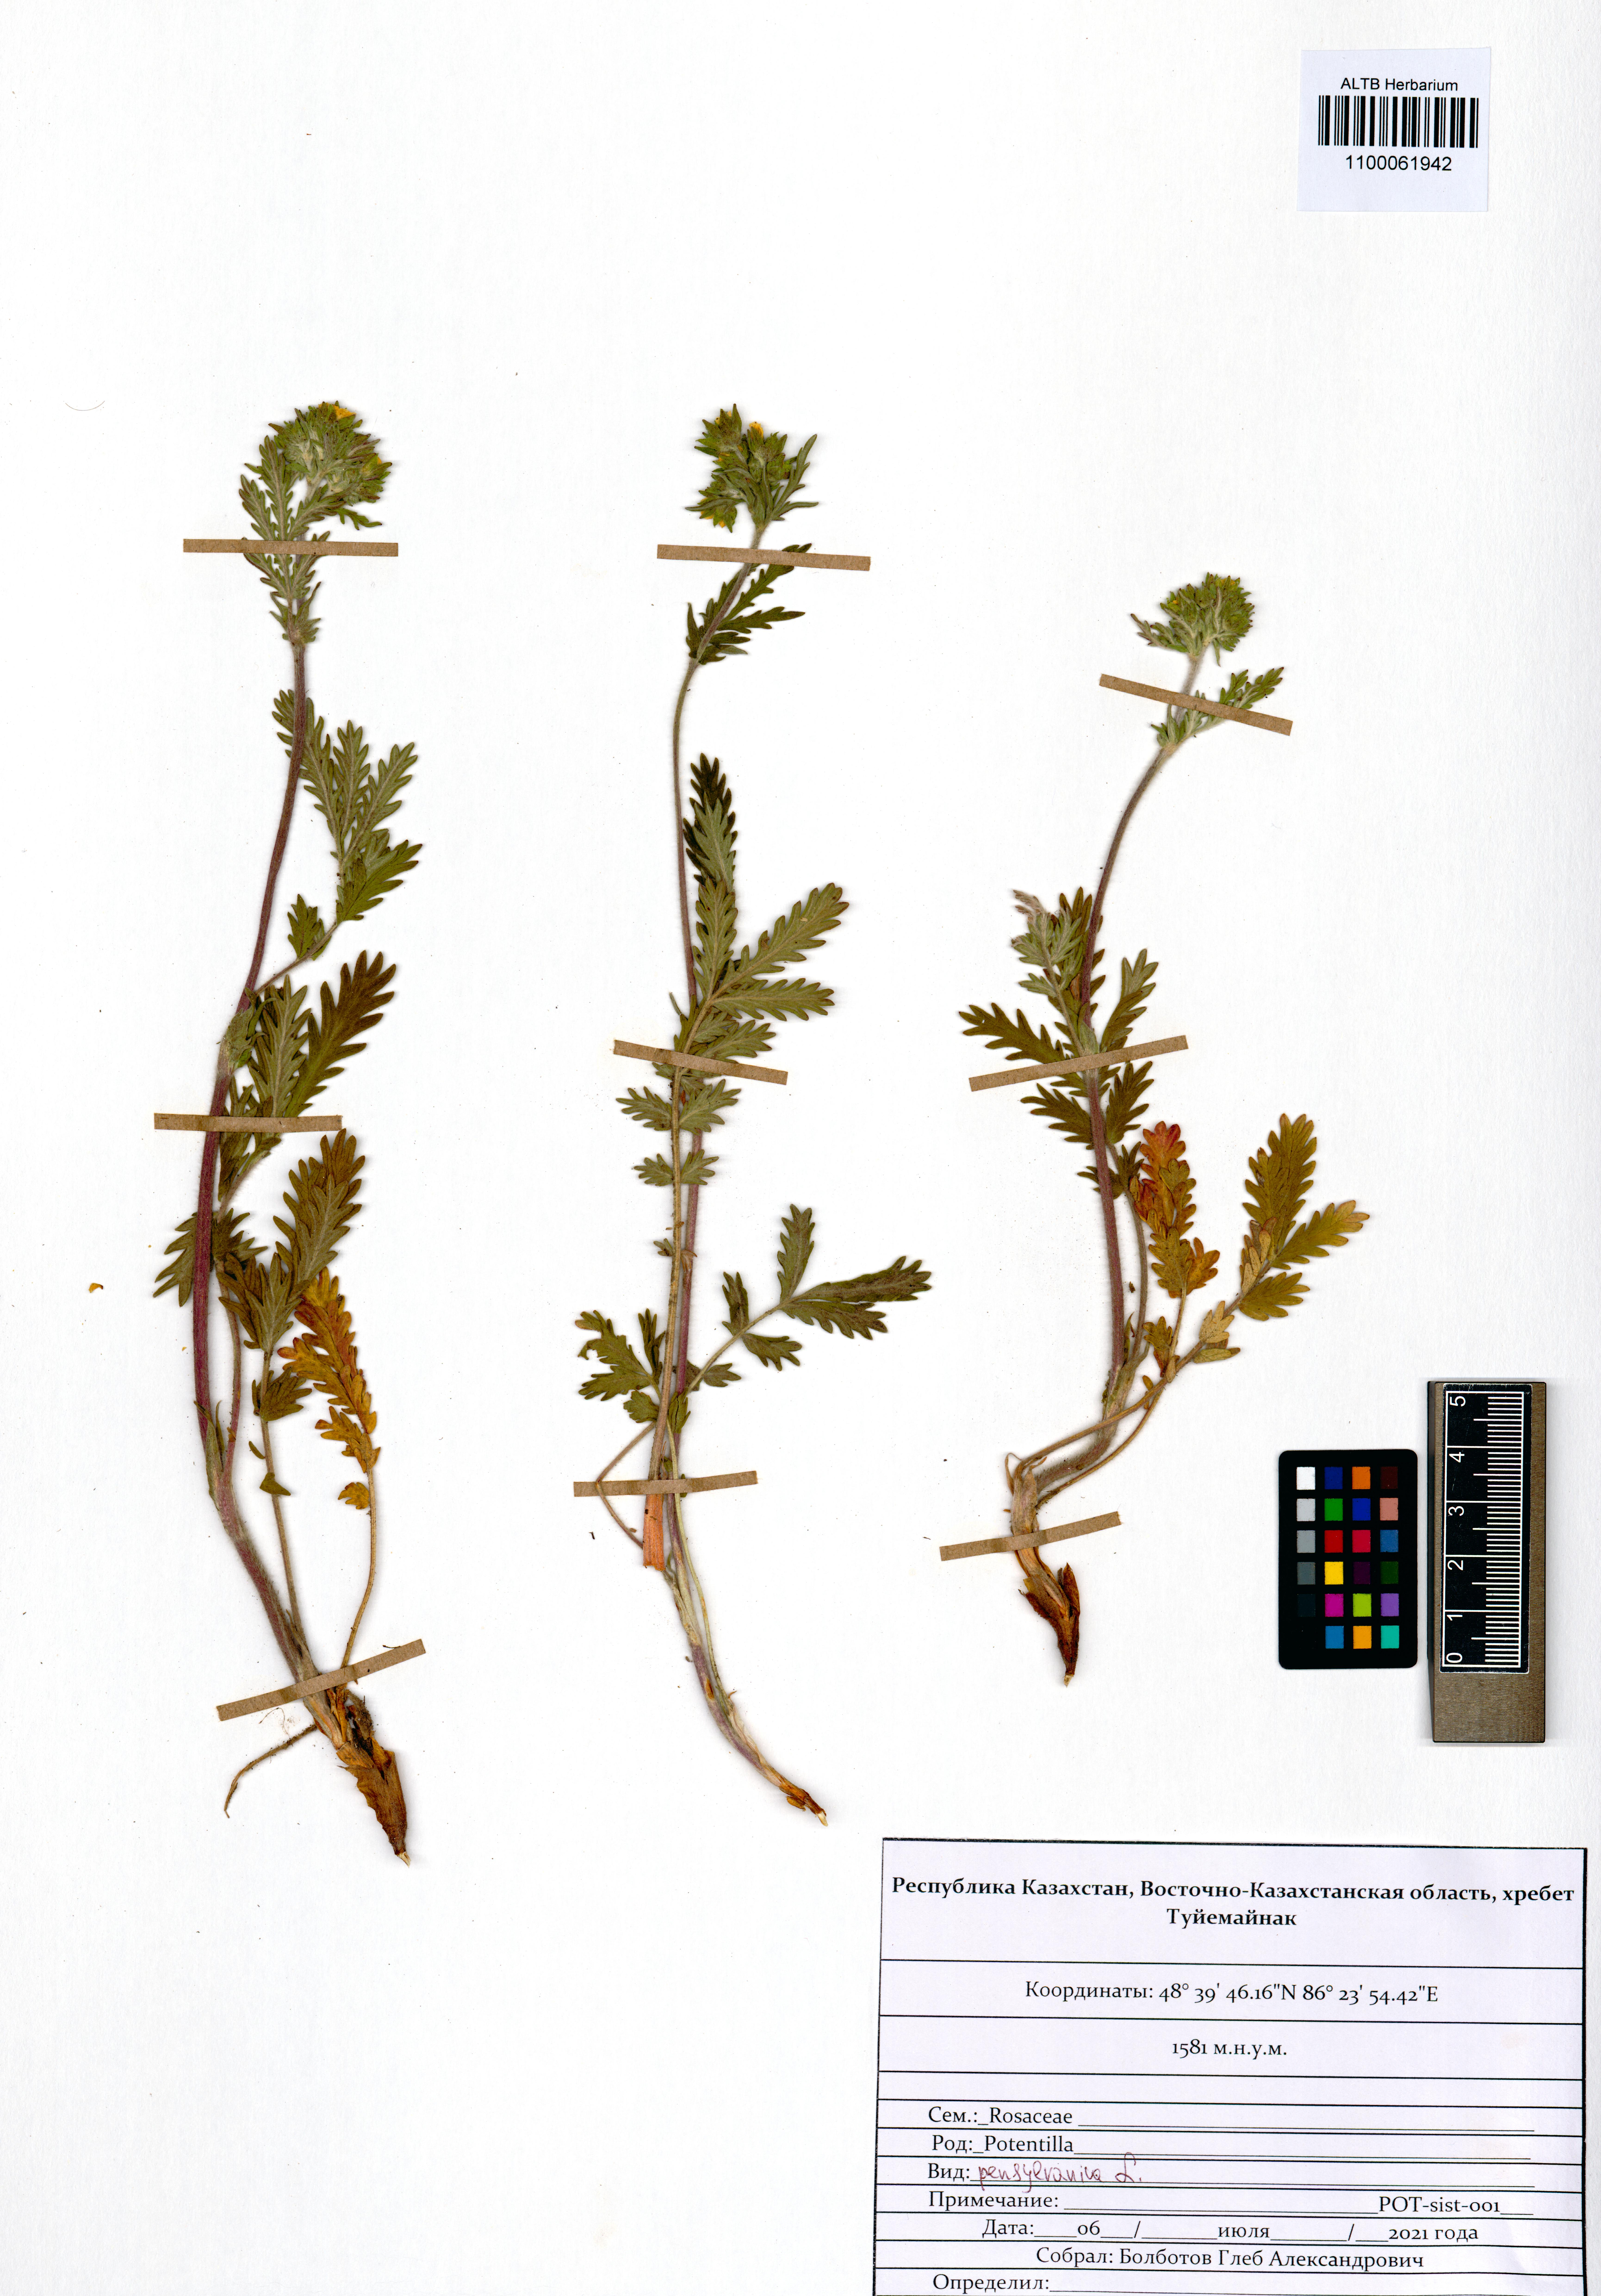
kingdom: Plantae
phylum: Tracheophyta
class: Magnoliopsida
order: Rosales
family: Rosaceae
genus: Potentilla
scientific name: Potentilla pensylvanica
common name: Pennsylvania cinquefoil
